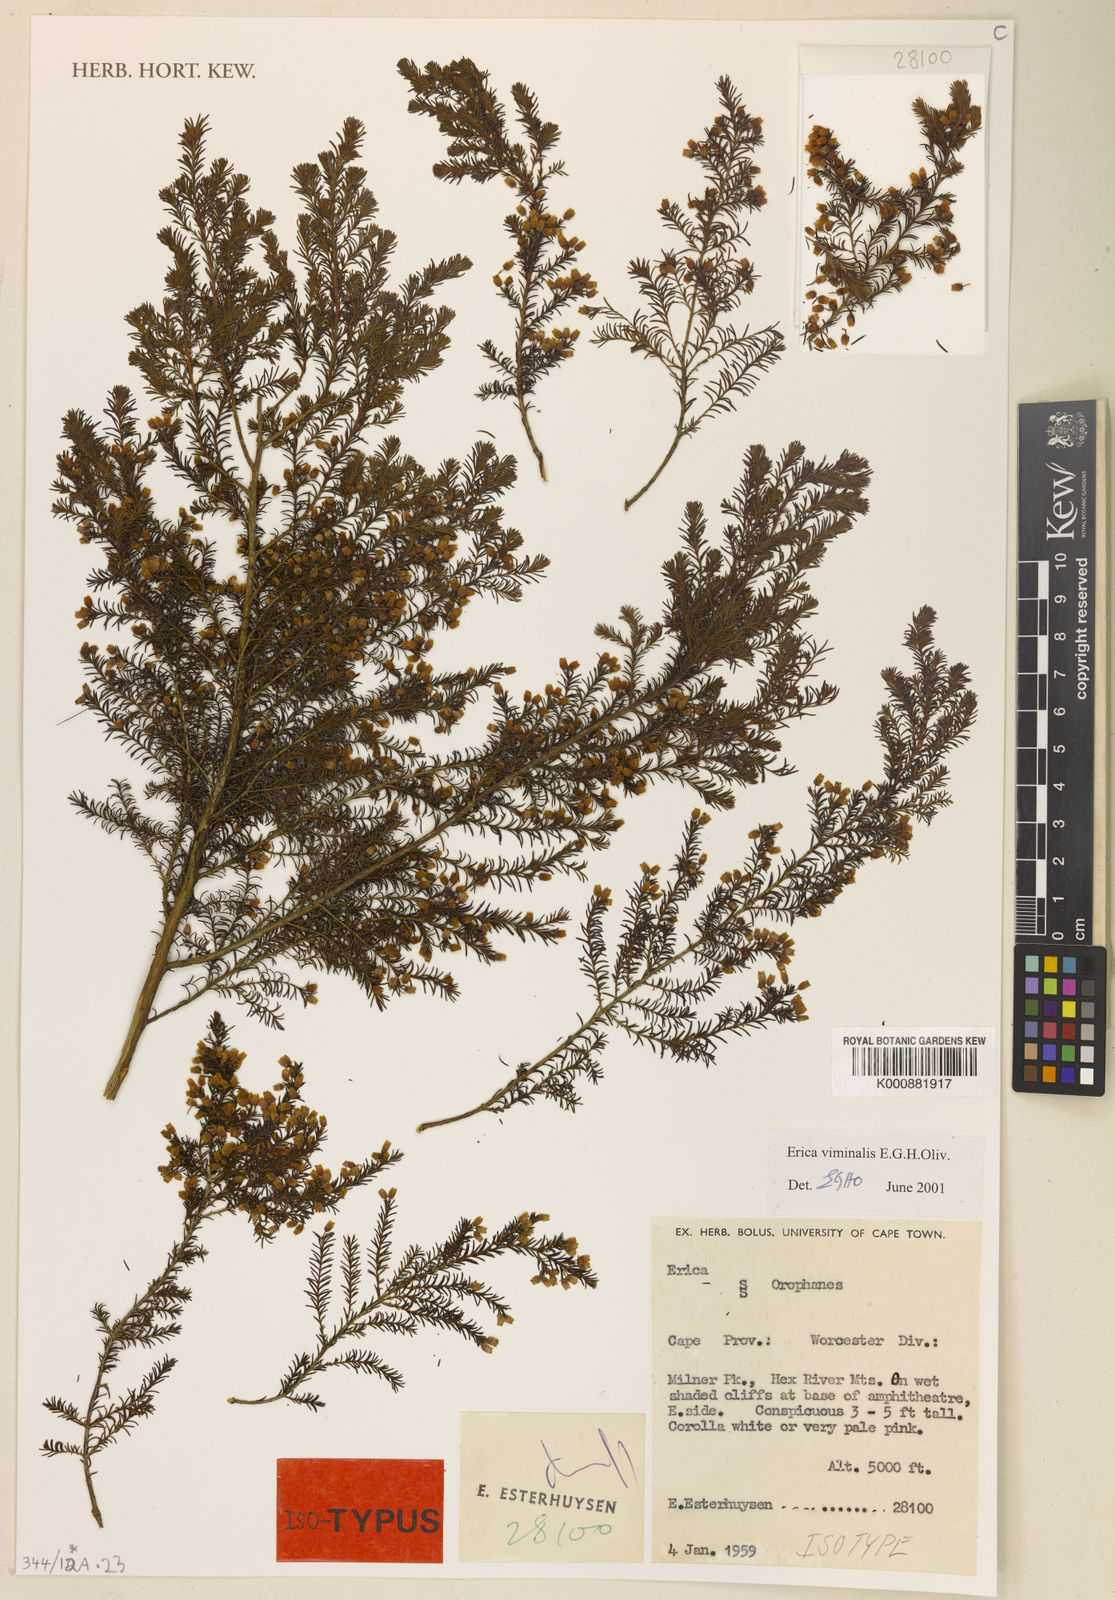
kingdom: Plantae
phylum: Tracheophyta
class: Magnoliopsida
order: Ericales
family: Ericaceae
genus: Erica
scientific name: Erica salicina
